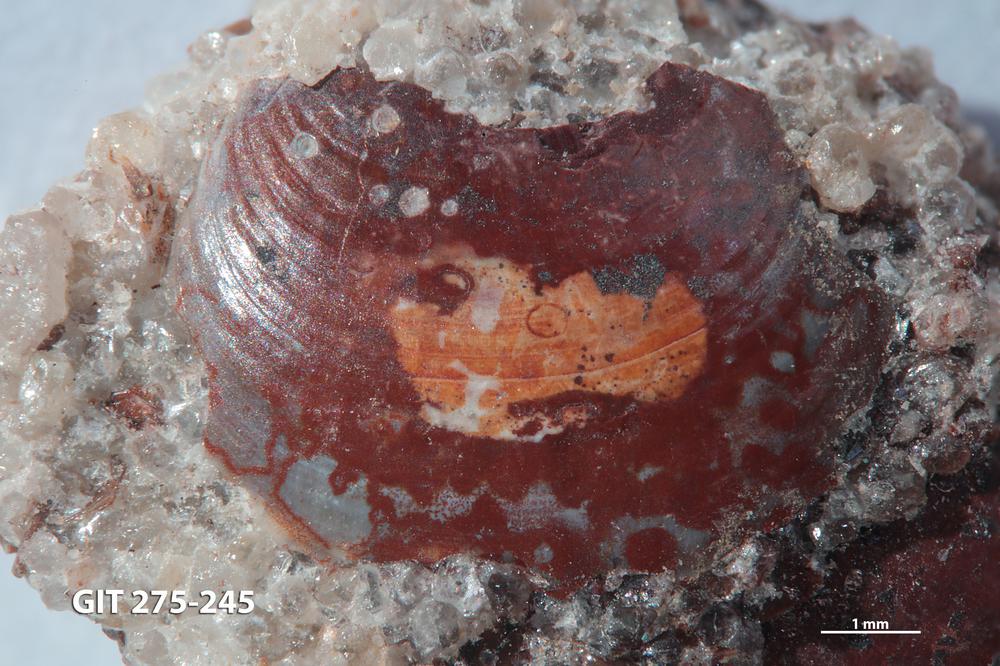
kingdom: Animalia
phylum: Brachiopoda
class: Lingulata
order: Lingulida
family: Obolidae
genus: Obolus
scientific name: Obolus Ungula convexa
